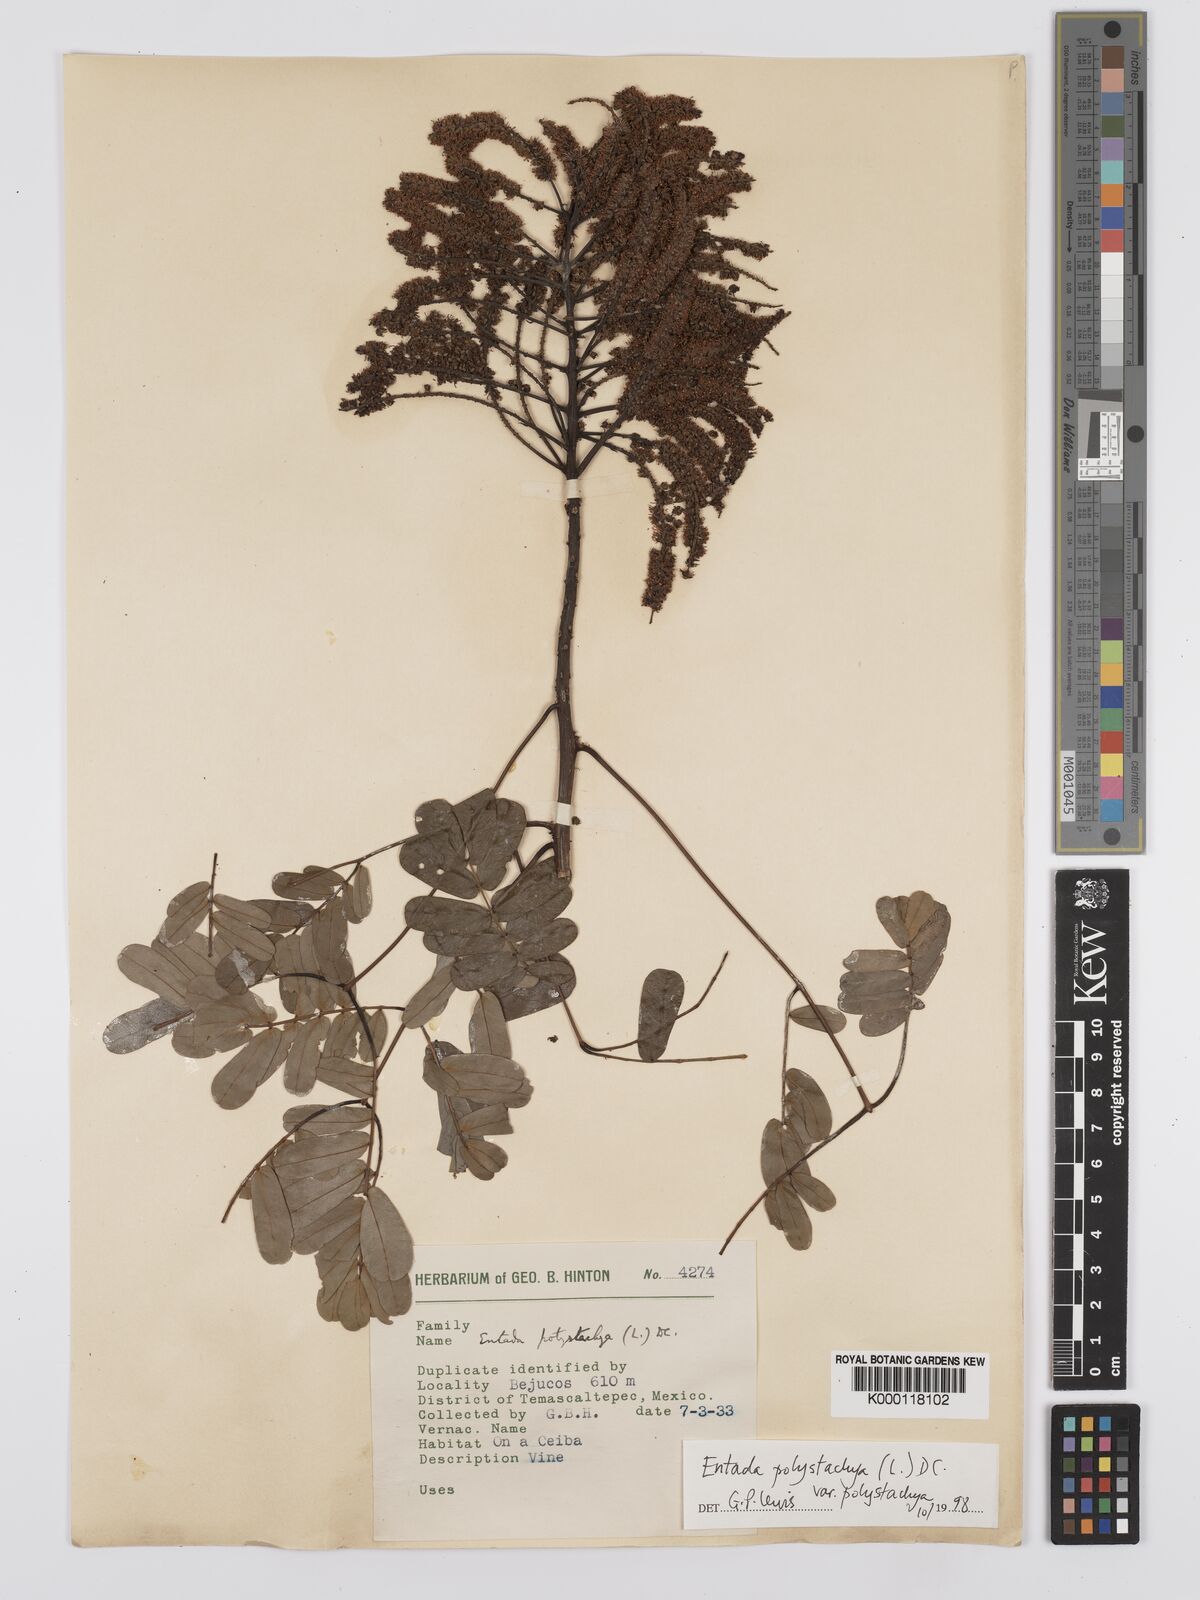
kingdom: Plantae
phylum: Tracheophyta
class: Magnoliopsida
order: Fabales
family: Fabaceae
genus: Entada
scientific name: Entada polystachya
